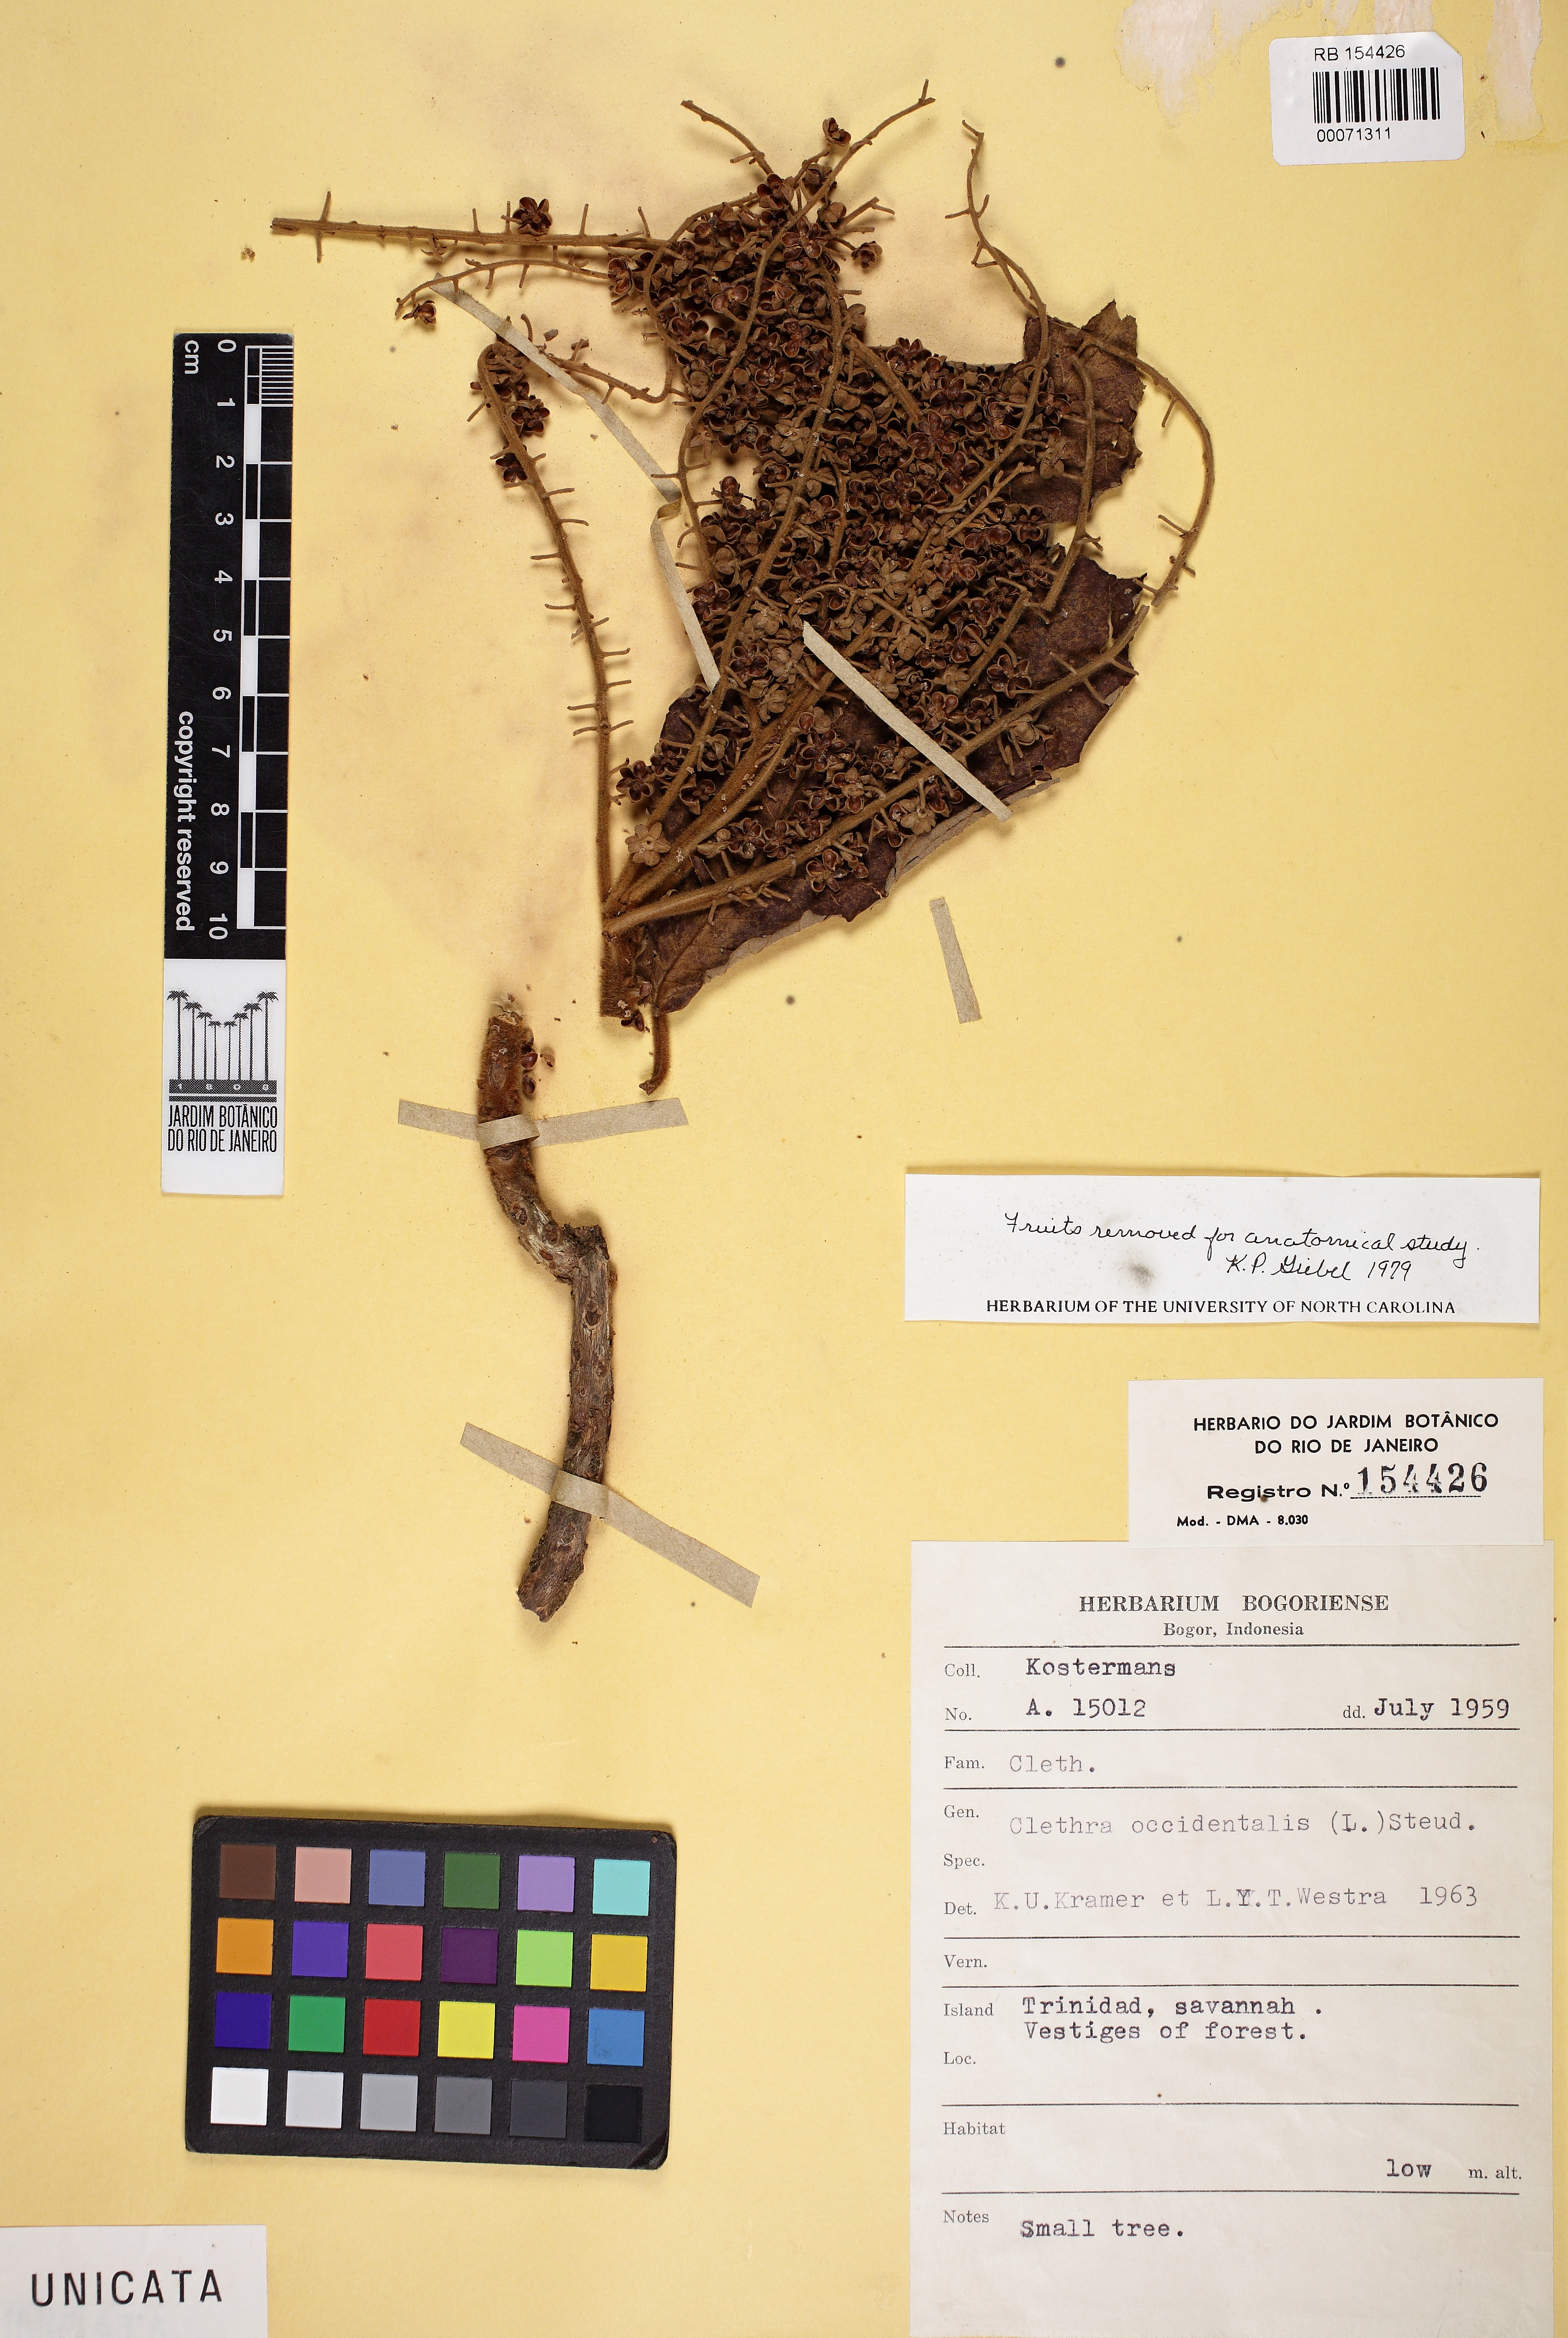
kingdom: Plantae
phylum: Tracheophyta
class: Magnoliopsida
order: Ericales
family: Clethraceae
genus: Clethra
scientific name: Clethra occidentalis
